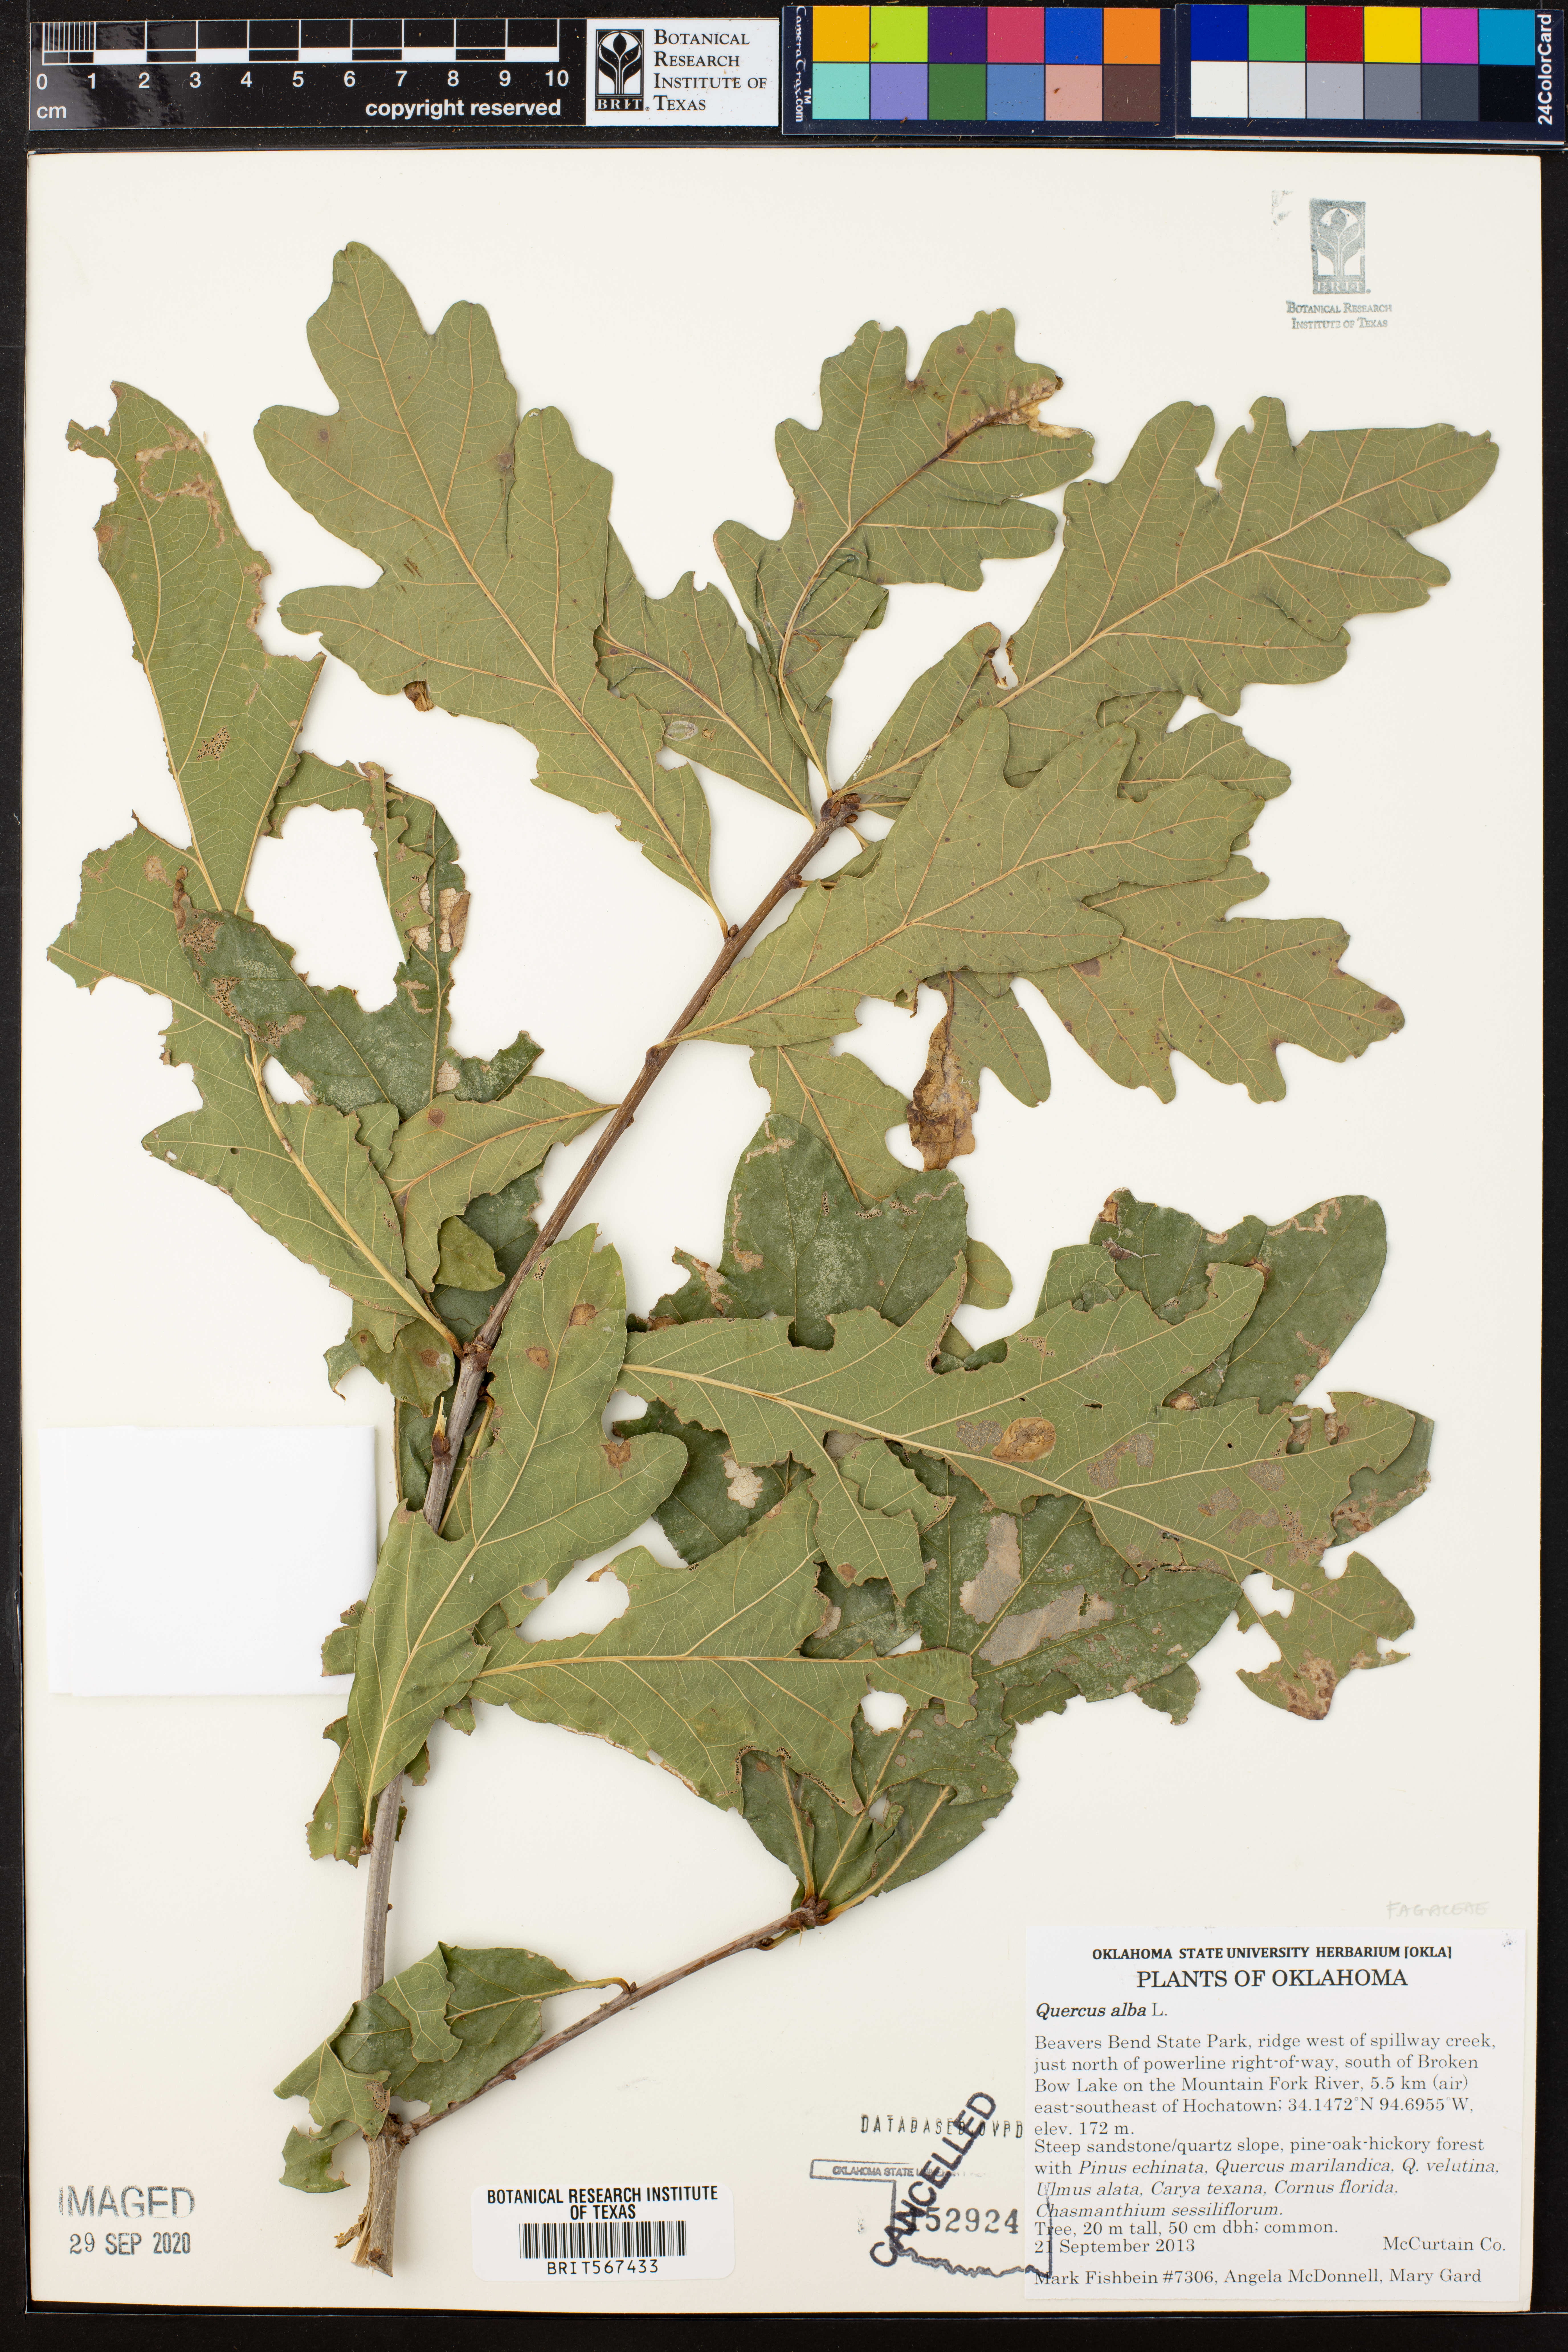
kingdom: Plantae
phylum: Tracheophyta
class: Magnoliopsida
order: Fagales
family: Fagaceae
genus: Quercus
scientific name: Quercus alba
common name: White oak
